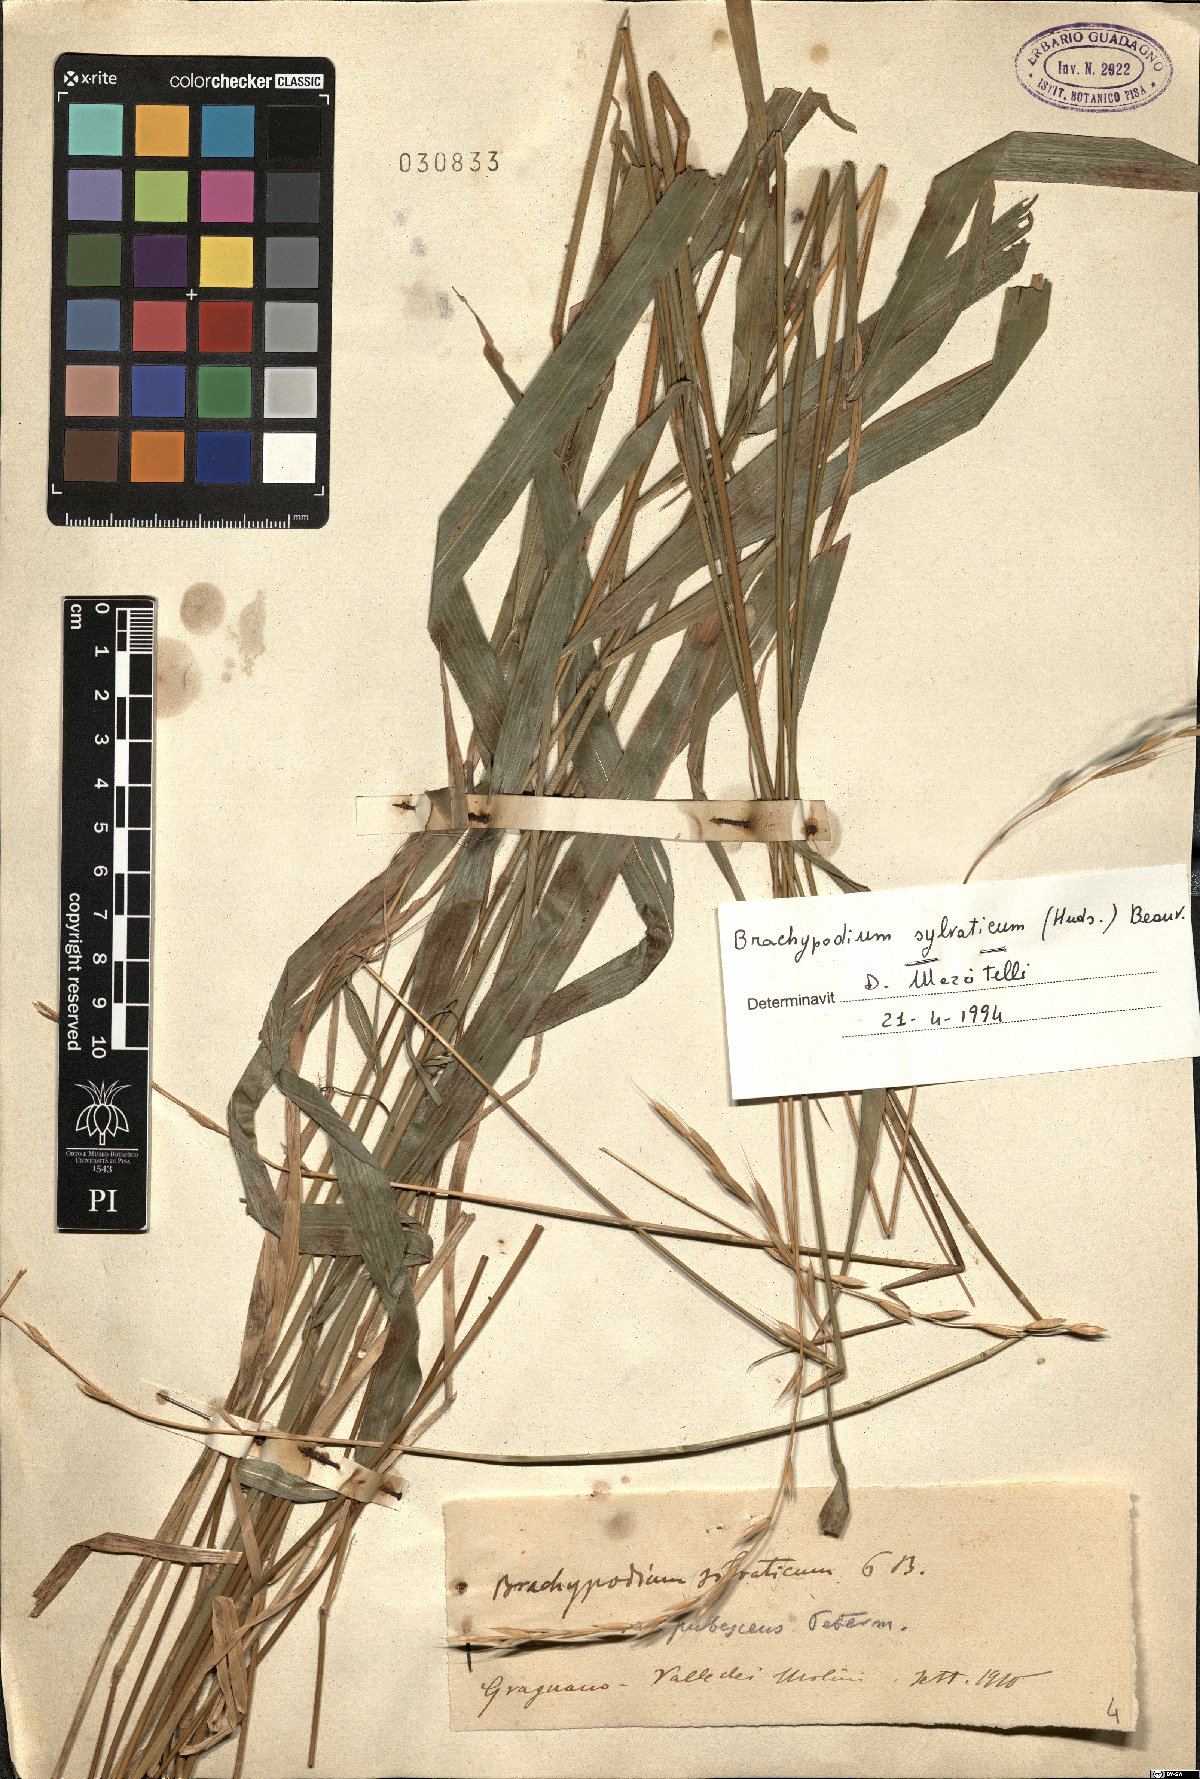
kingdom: Plantae
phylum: Tracheophyta
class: Liliopsida
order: Poales
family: Poaceae
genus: Brachypodium
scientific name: Brachypodium sylvaticum
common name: False-brome
